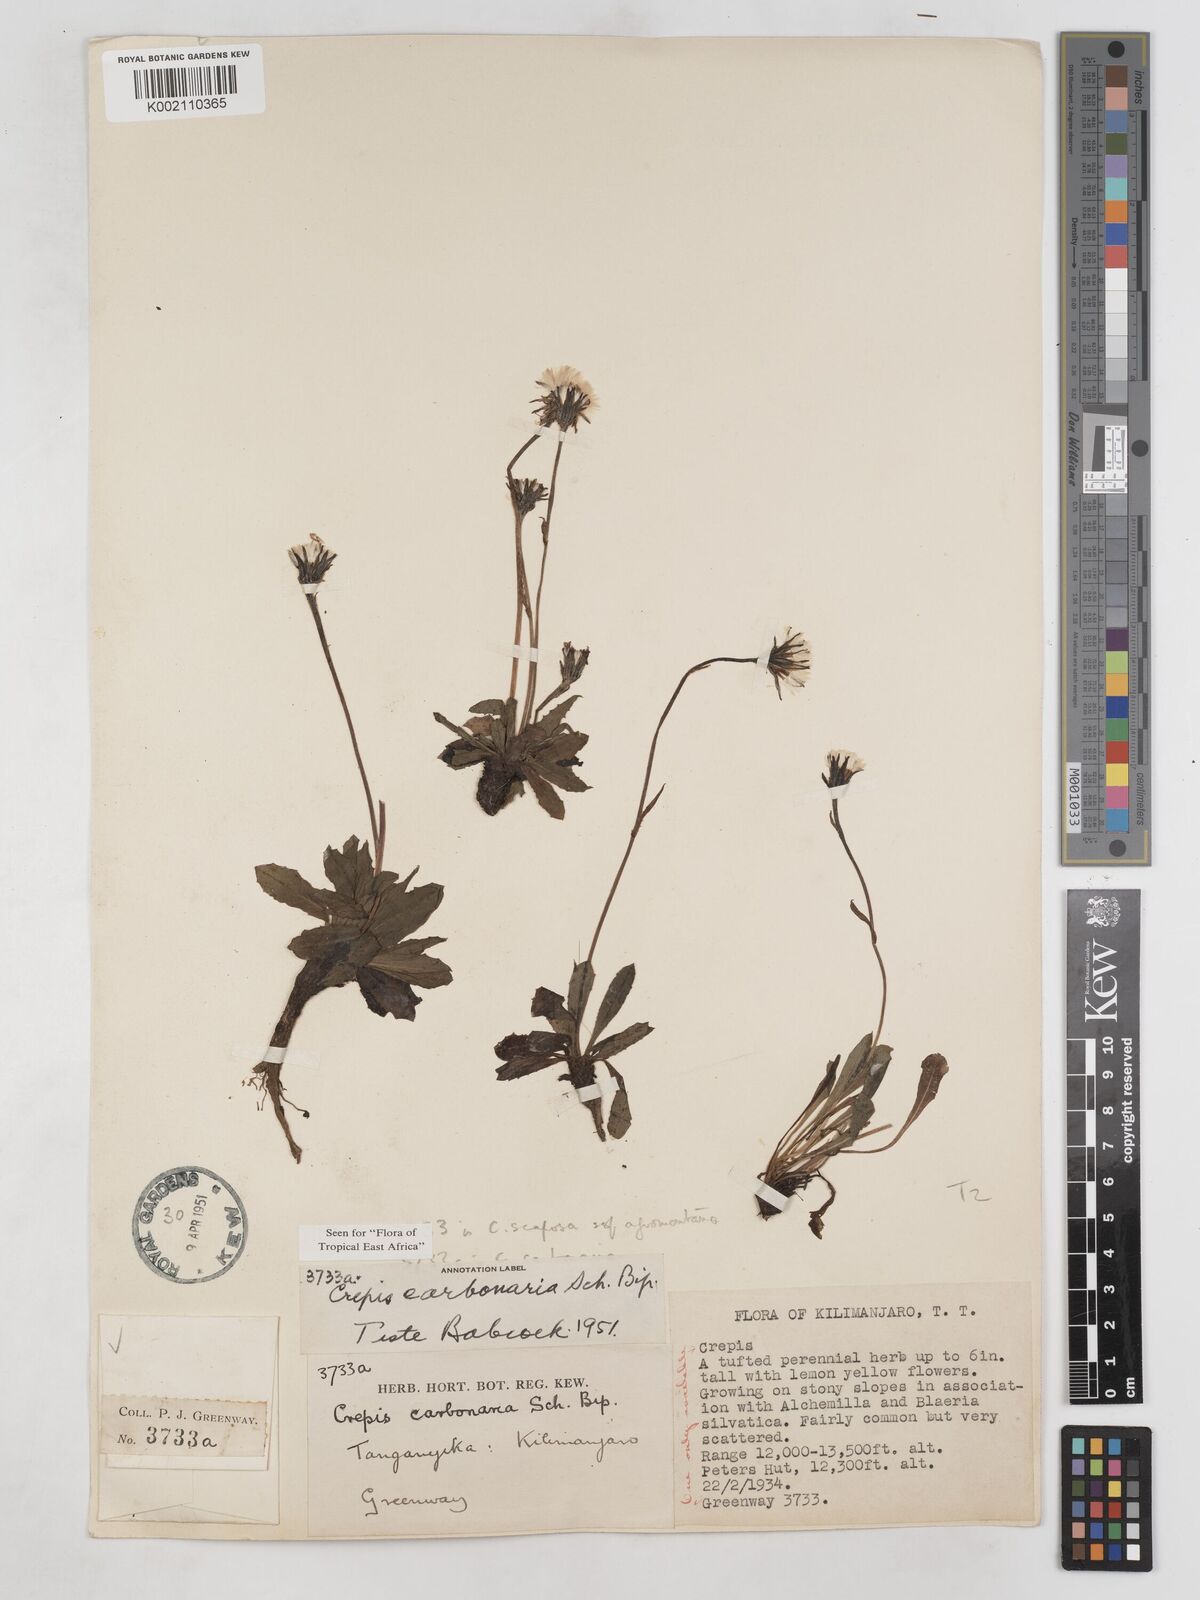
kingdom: Plantae
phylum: Tracheophyta
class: Magnoliopsida
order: Asterales
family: Asteraceae
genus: Crepis
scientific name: Crepis carbonaria
